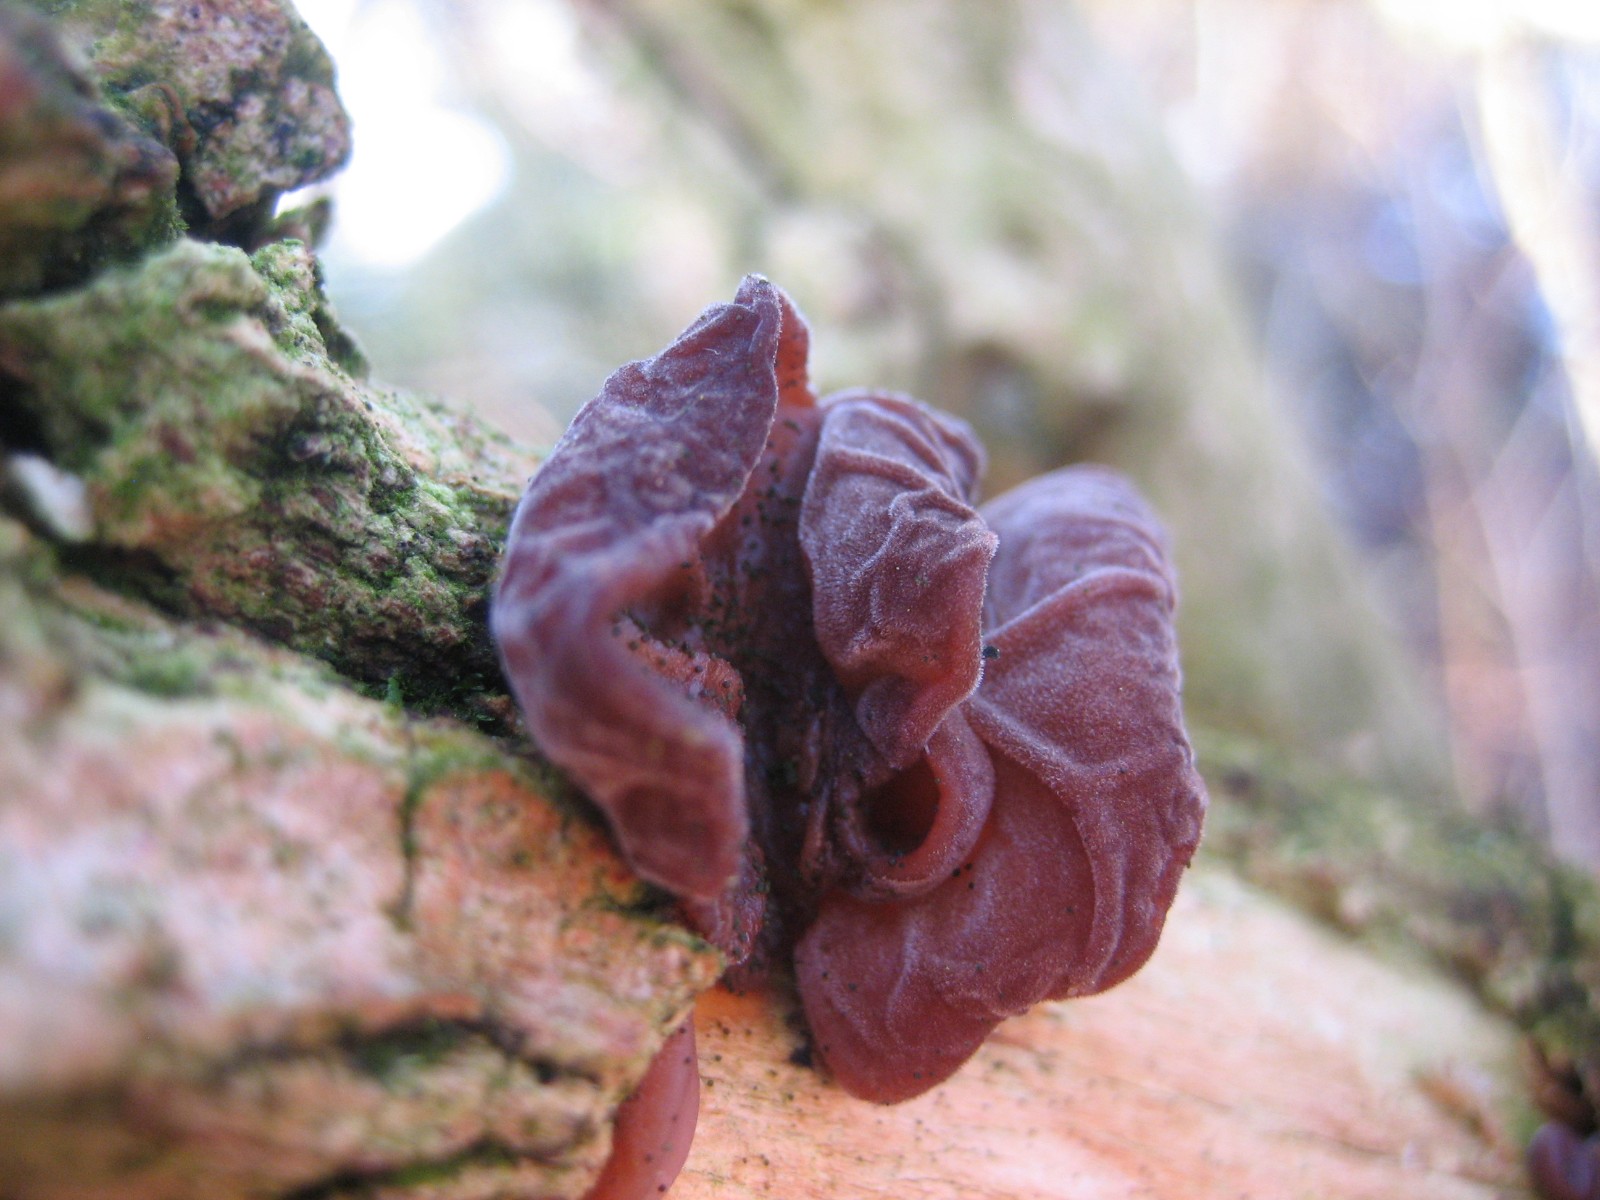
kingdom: Fungi
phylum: Basidiomycota
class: Agaricomycetes
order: Auriculariales
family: Auriculariaceae
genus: Auricularia
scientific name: Auricularia auricula-judae
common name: almindelig judasøre
